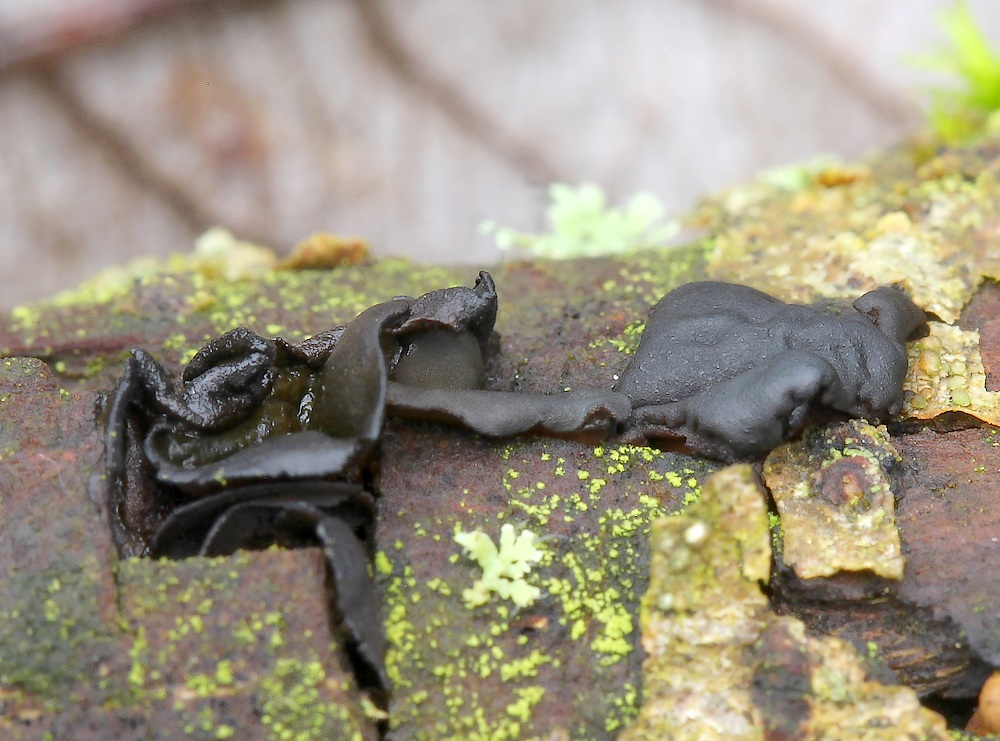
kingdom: Fungi
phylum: Ascomycota
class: Leotiomycetes
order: Helotiales
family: Cordieritidaceae
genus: Ionomidotis
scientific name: Ionomidotis fulvotingens
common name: rødmende tjæreskive
